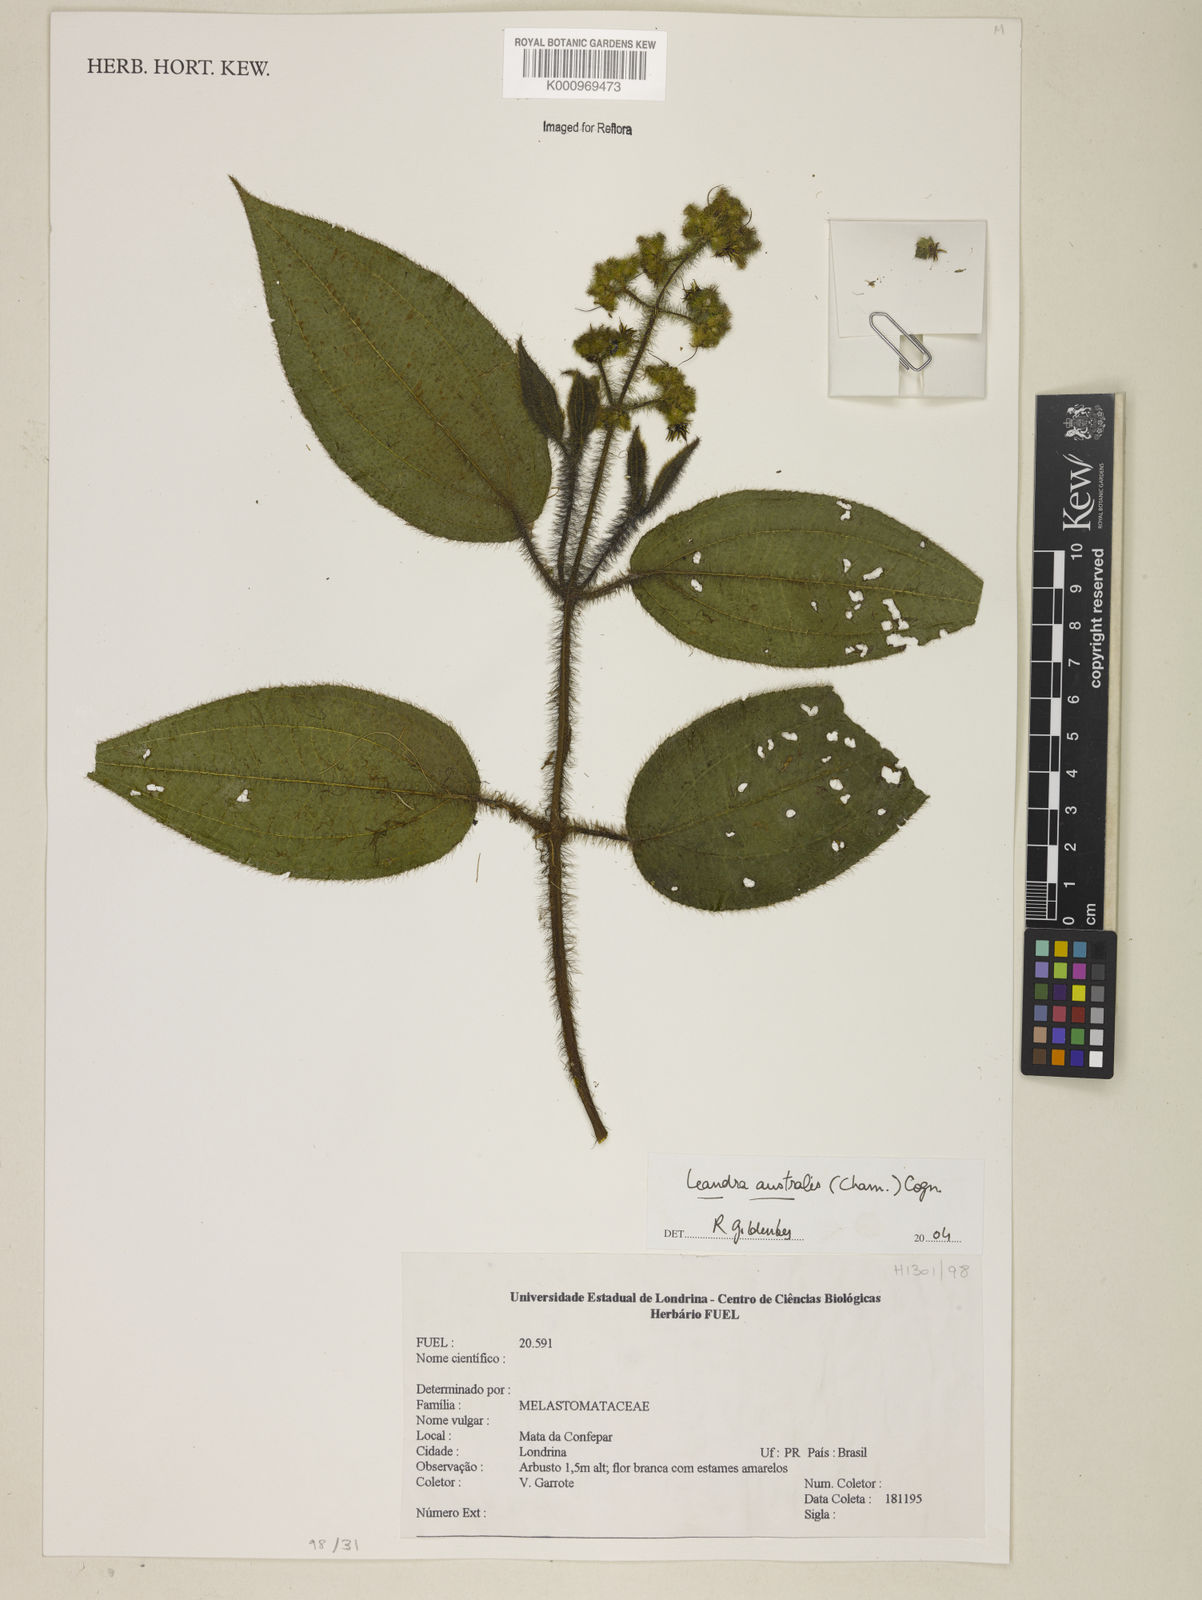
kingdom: Plantae
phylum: Tracheophyta
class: Magnoliopsida
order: Myrtales
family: Melastomataceae
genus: Miconia
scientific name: Miconia australis
